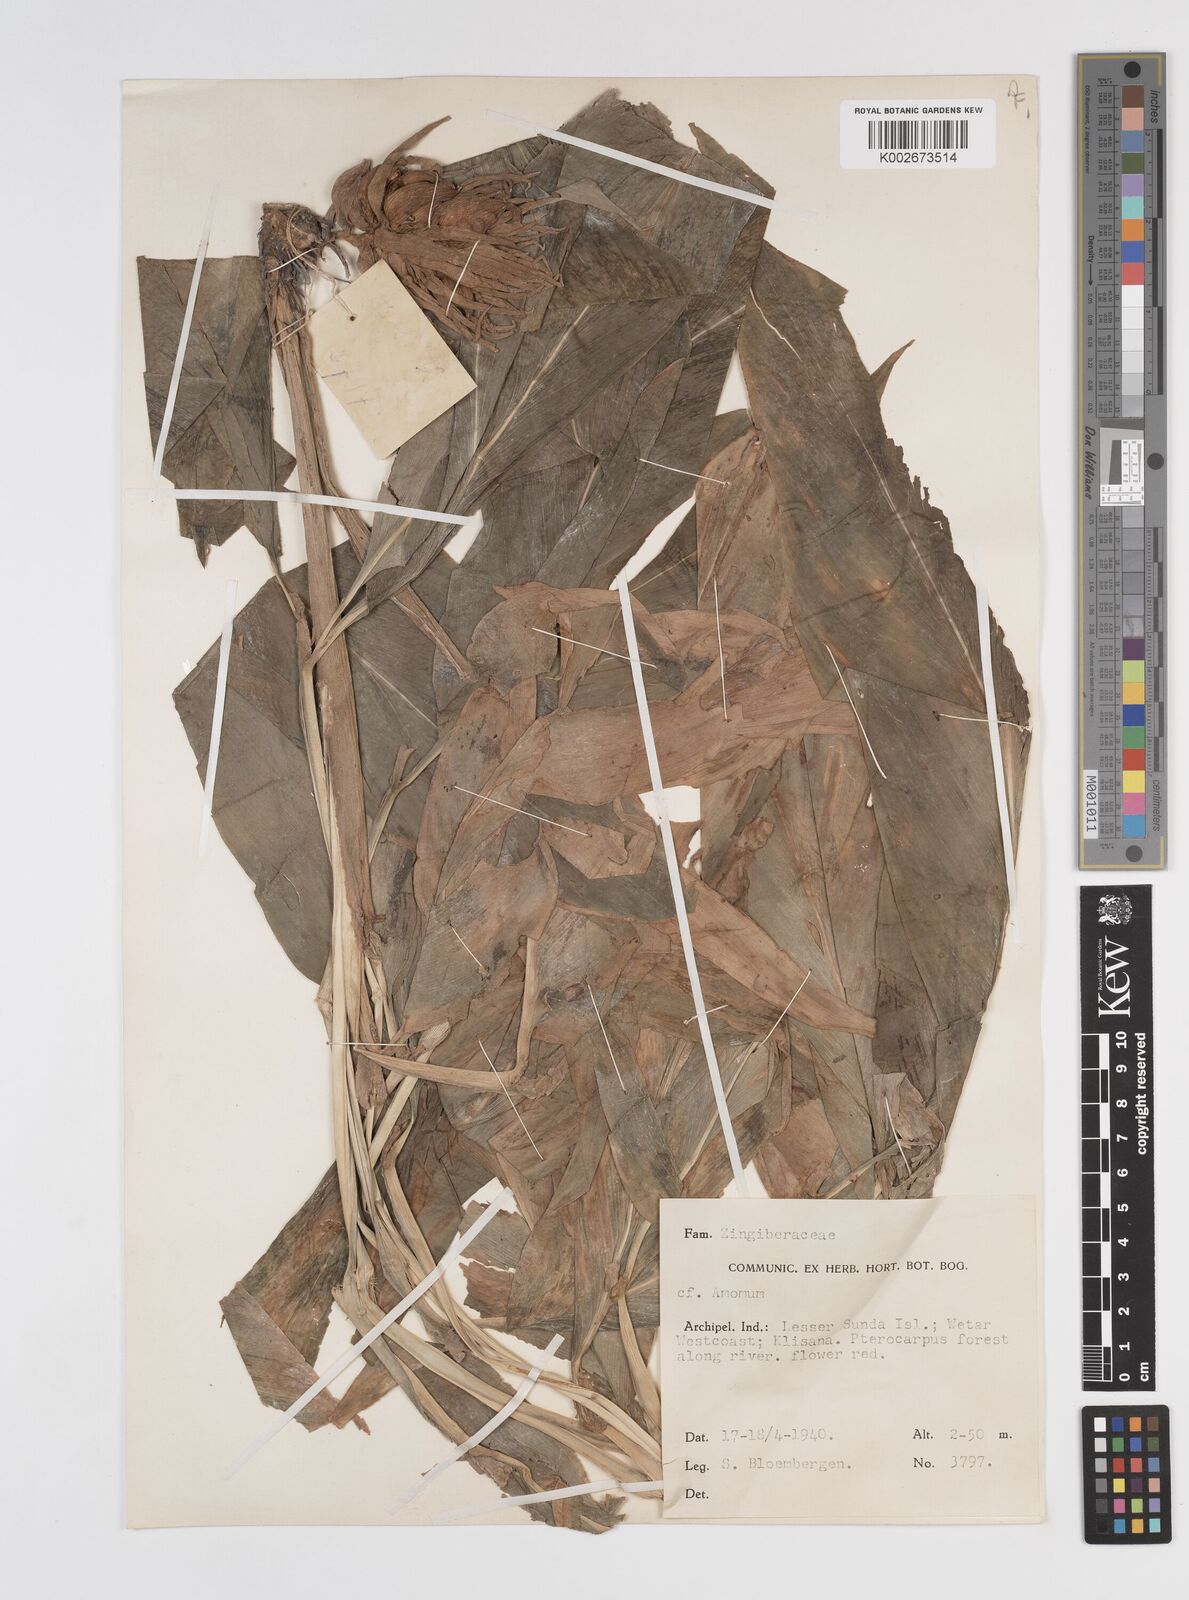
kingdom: Plantae
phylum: Tracheophyta
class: Liliopsida
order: Zingiberales
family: Zingiberaceae
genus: Amomum
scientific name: Amomum
